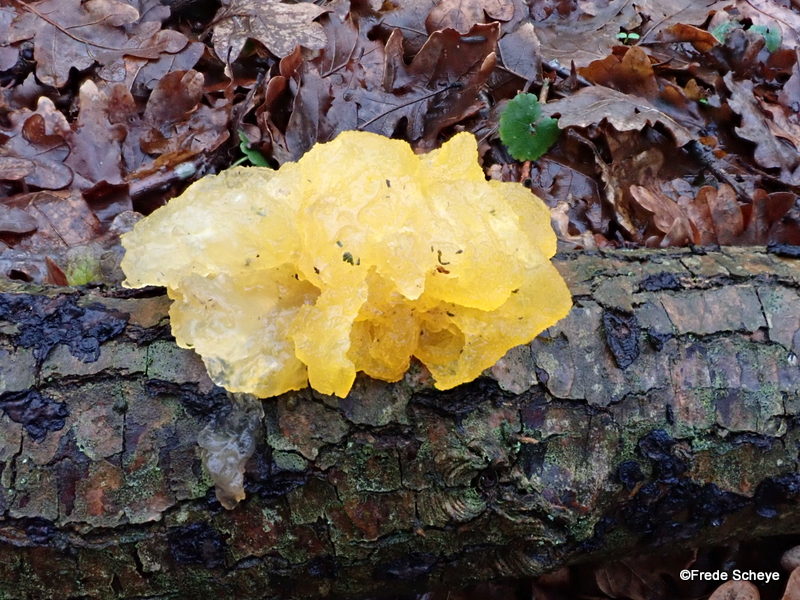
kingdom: Fungi
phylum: Basidiomycota
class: Tremellomycetes
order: Tremellales
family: Tremellaceae
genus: Tremella
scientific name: Tremella mesenterica
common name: gul bævresvamp
